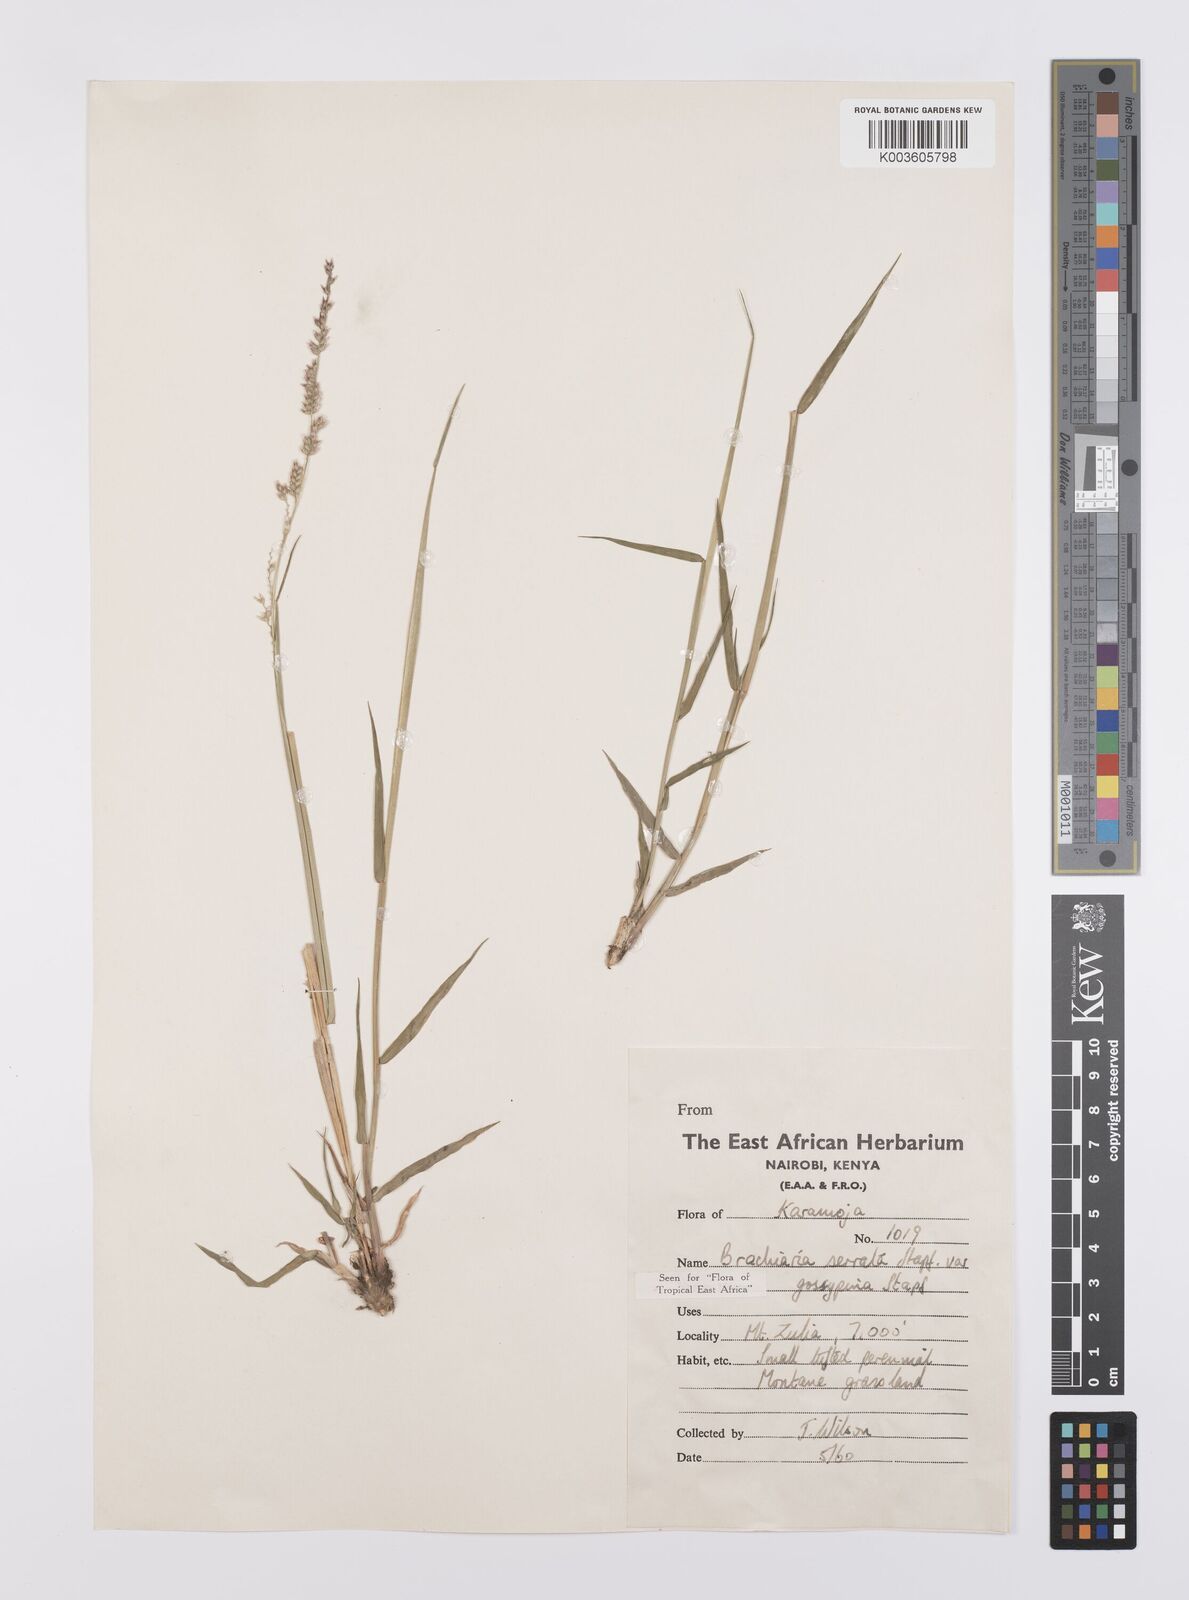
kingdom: Plantae
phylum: Tracheophyta
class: Liliopsida
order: Poales
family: Poaceae
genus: Urochloa
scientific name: Urochloa serrata
